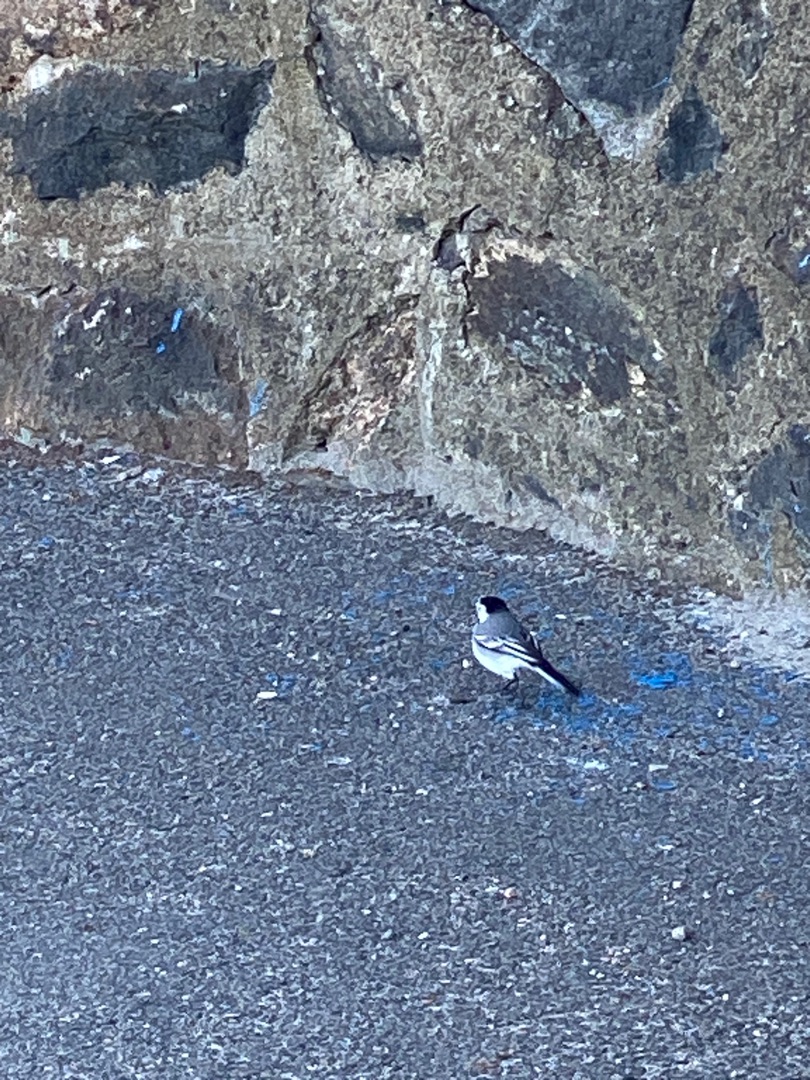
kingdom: Animalia
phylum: Chordata
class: Aves
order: Passeriformes
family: Motacillidae
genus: Motacilla
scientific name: Motacilla alba
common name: Hvid vipstjert
